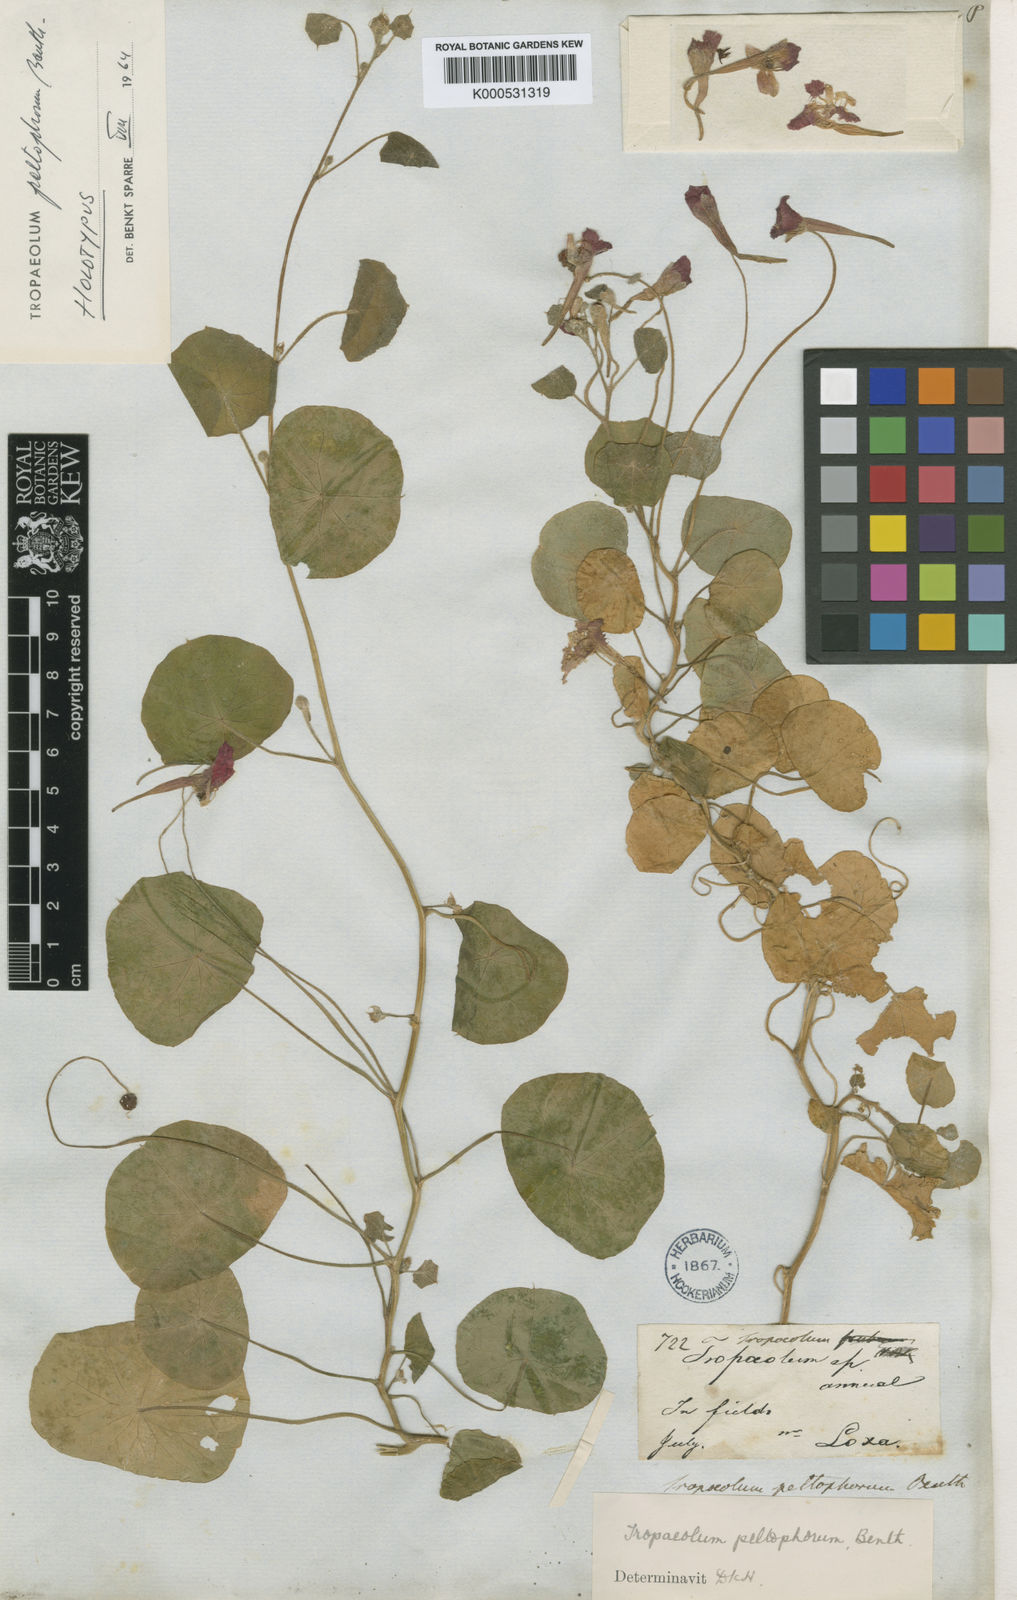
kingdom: Plantae
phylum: Tracheophyta
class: Magnoliopsida
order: Brassicales
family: Tropaeolaceae
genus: Tropaeolum
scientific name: Tropaeolum peltophorum
